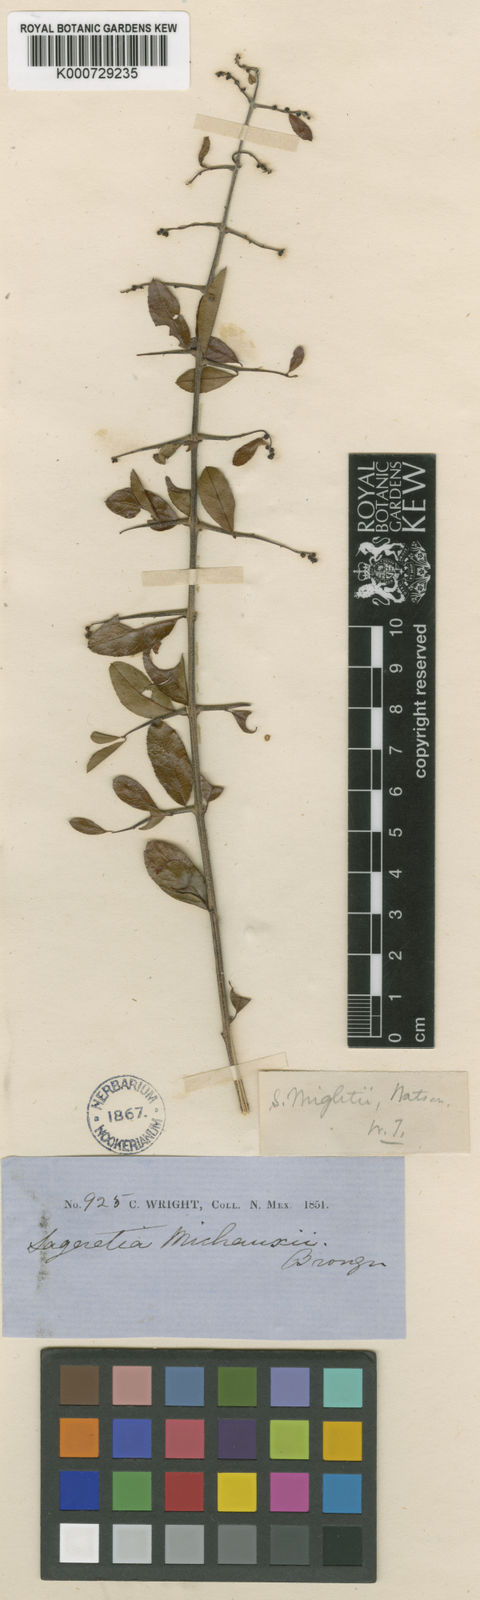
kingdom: Plantae
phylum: Tracheophyta
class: Magnoliopsida
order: Rosales
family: Rhamnaceae
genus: Sageretia
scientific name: Sageretia wrightii
